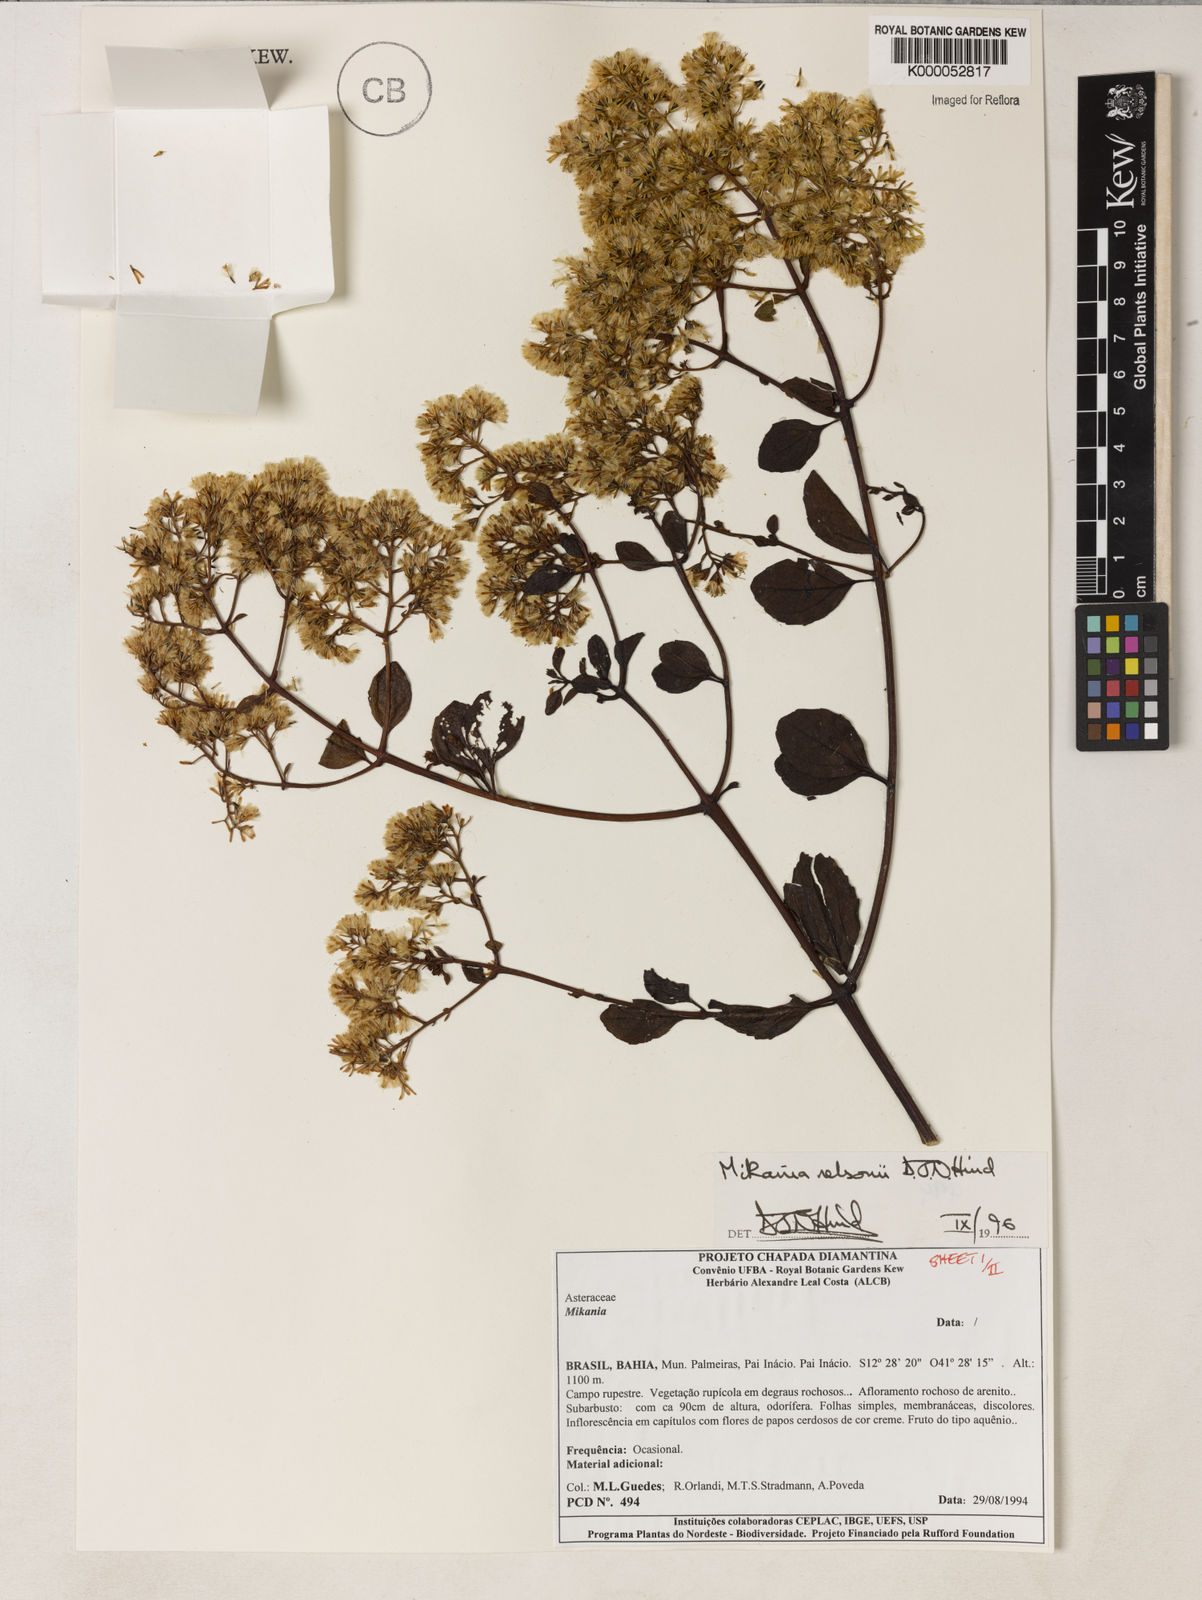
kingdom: Plantae
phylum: Tracheophyta
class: Magnoliopsida
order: Asterales
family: Asteraceae
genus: Mikania
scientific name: Mikania nelsonii
